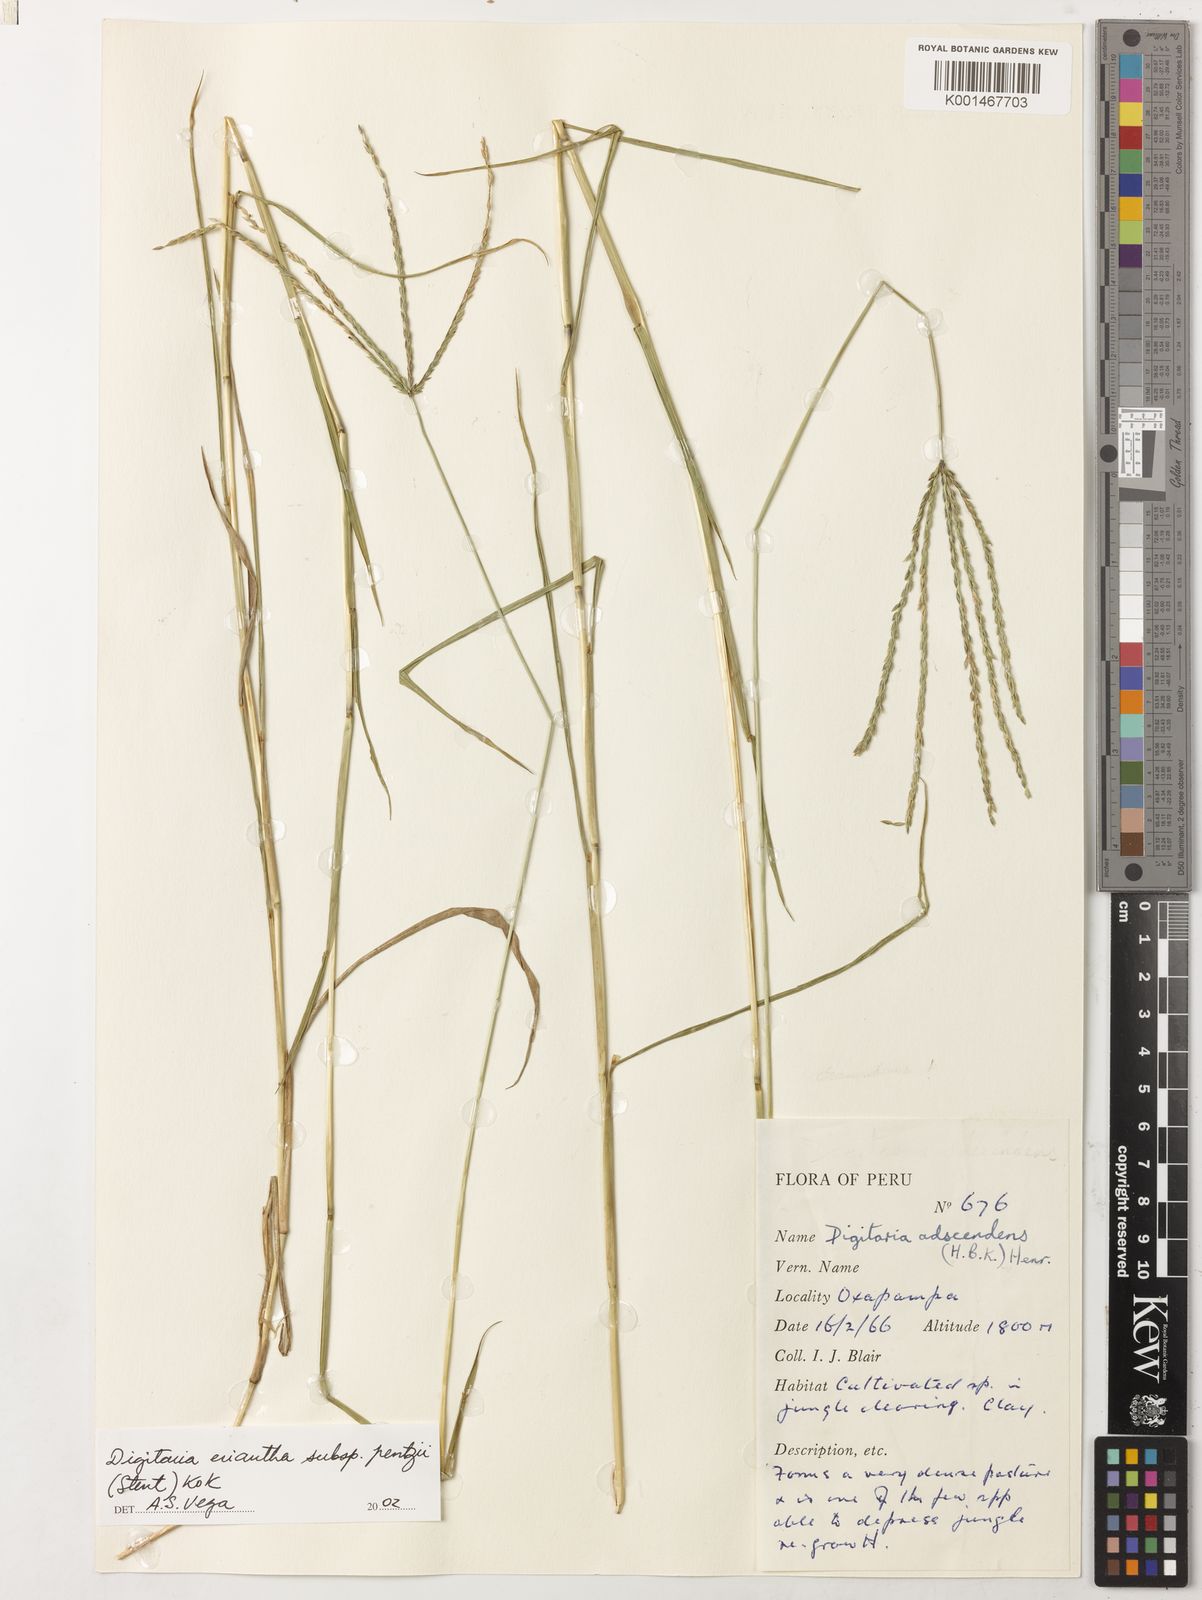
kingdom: Plantae
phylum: Tracheophyta
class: Liliopsida
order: Poales
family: Poaceae
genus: Digitaria
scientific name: Digitaria eriantha
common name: Digitgrass
